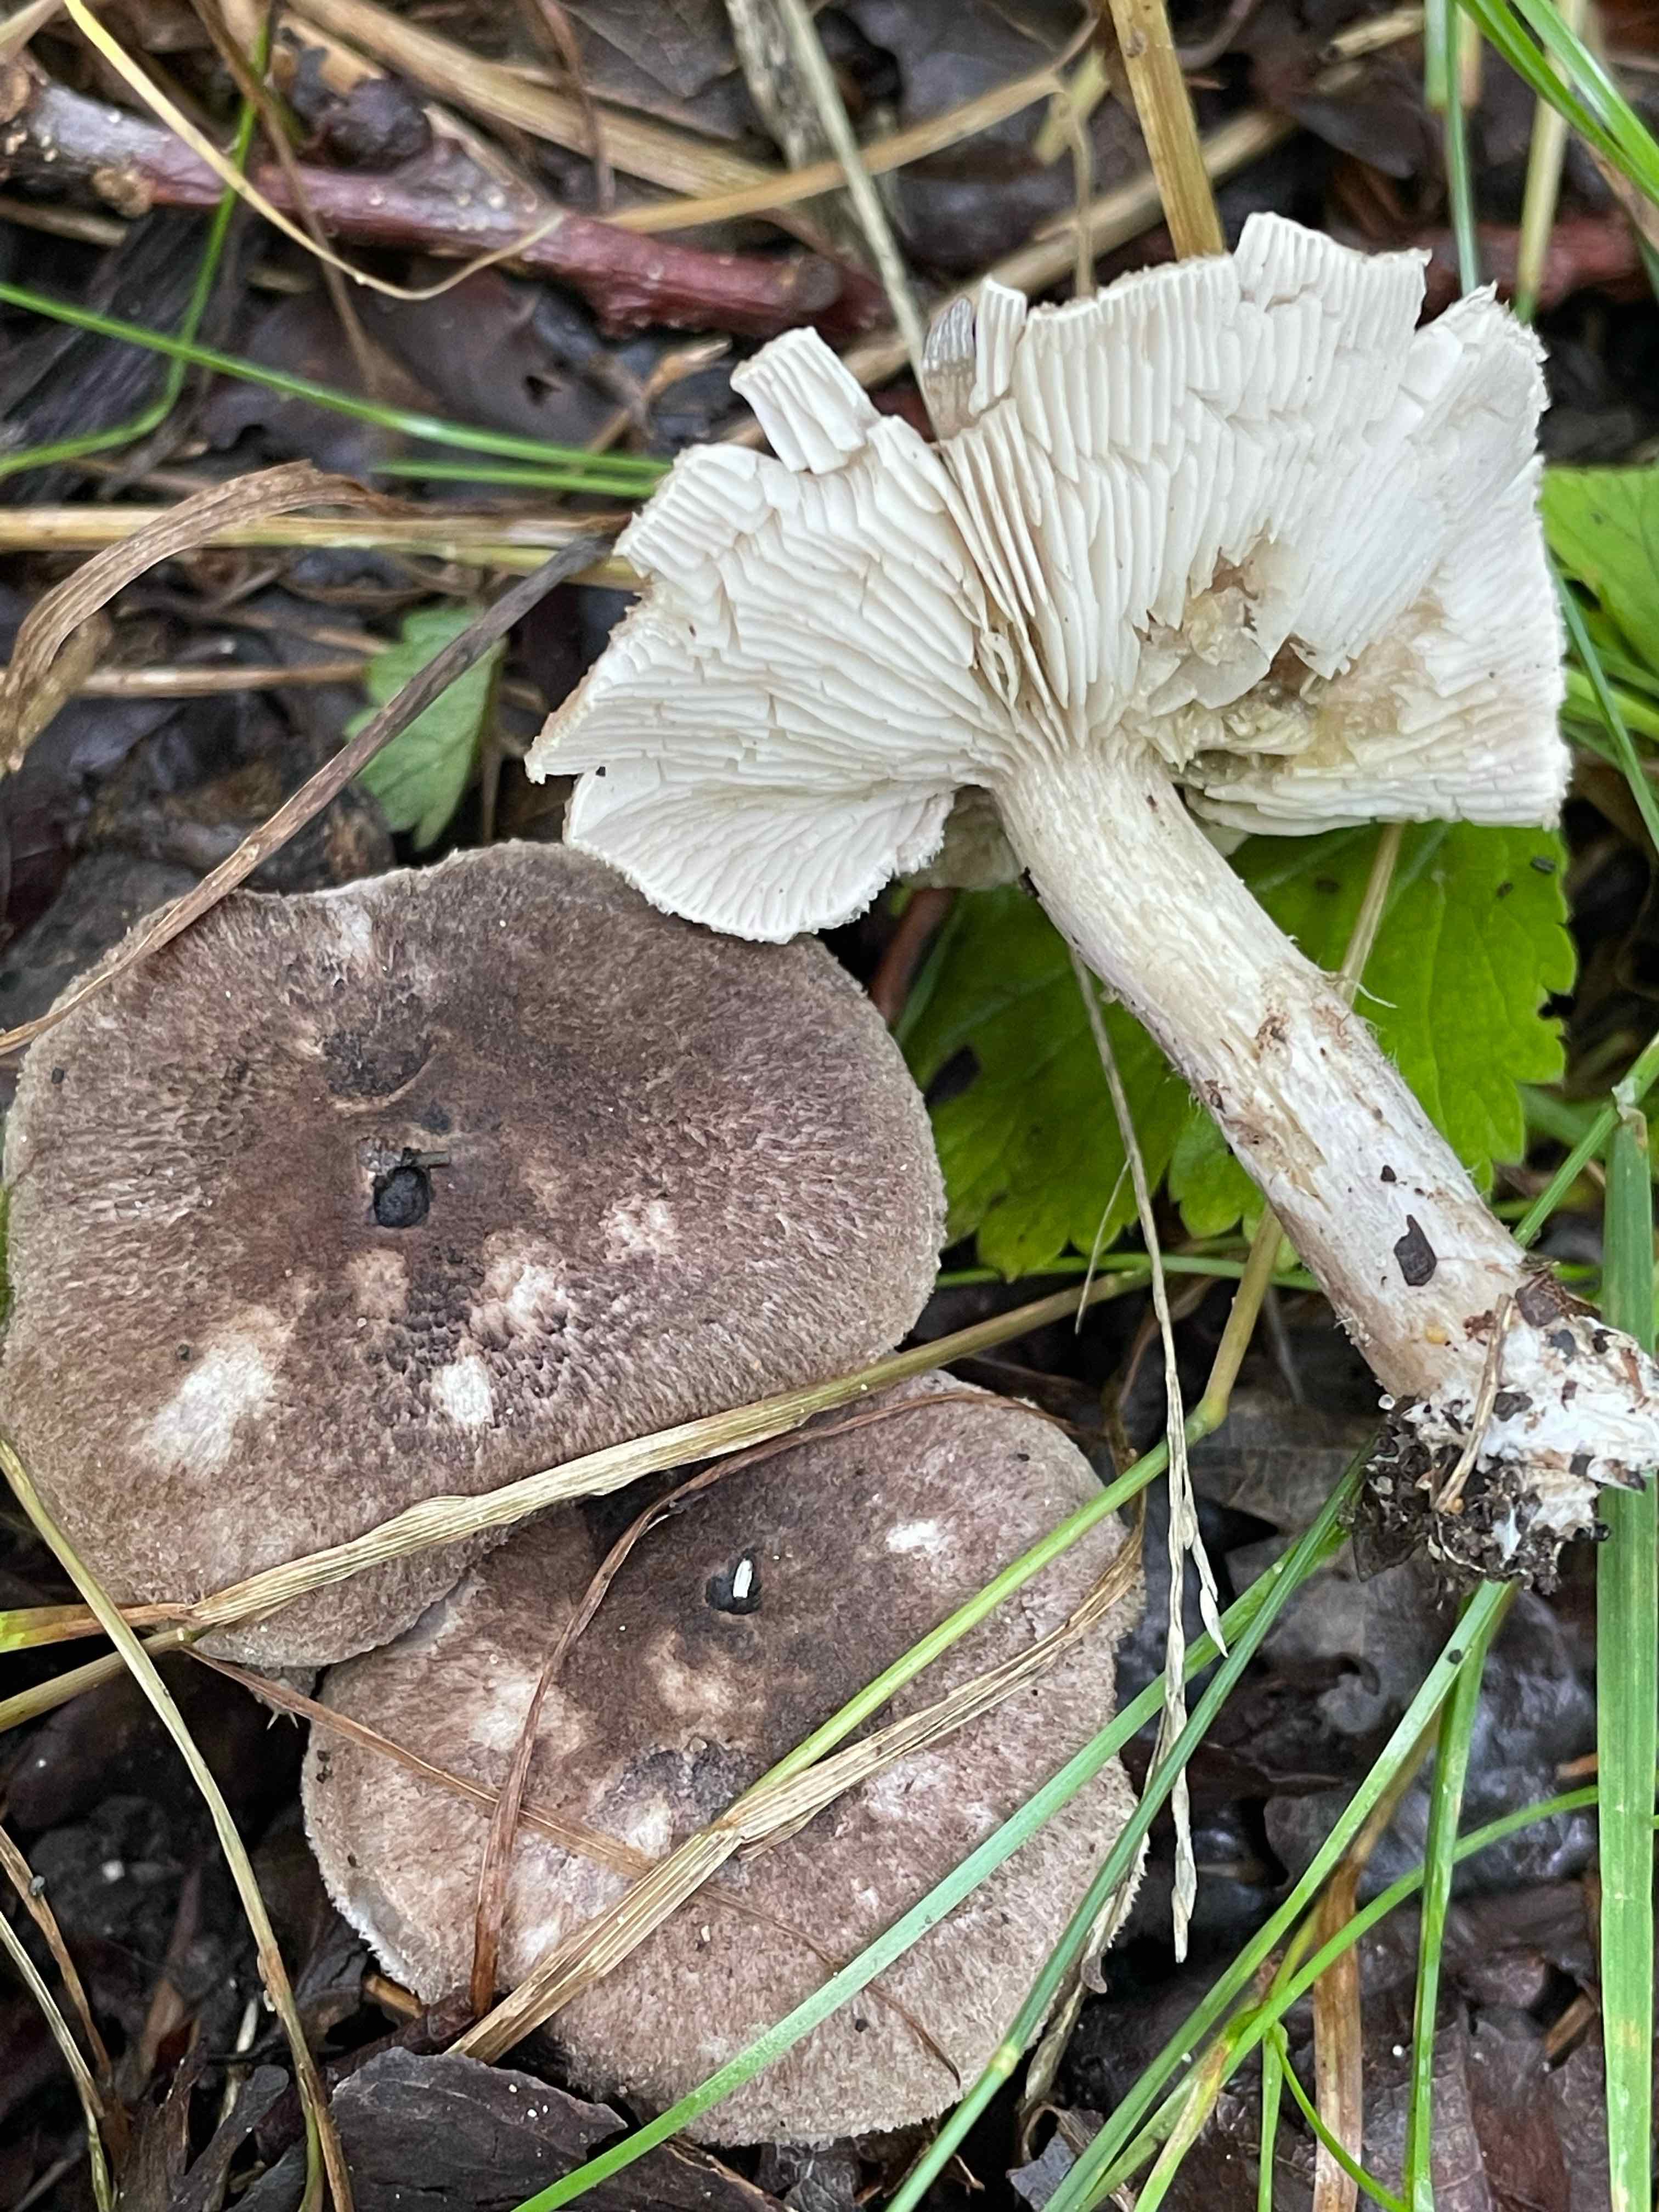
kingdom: Fungi
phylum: Basidiomycota
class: Agaricomycetes
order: Agaricales
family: Tricholomataceae
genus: Tricholoma
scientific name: Tricholoma scalpturatum
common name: gulplettet ridderhat
